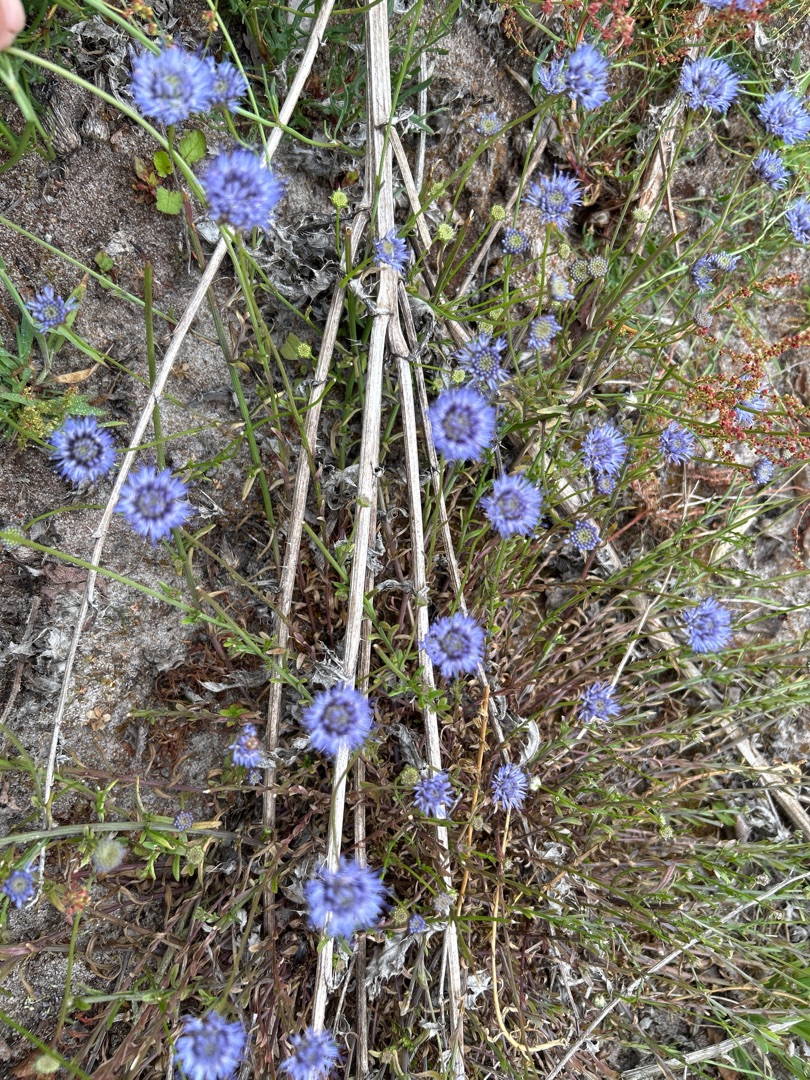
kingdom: Plantae
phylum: Tracheophyta
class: Magnoliopsida
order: Asterales
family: Campanulaceae
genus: Jasione
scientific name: Jasione montana
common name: Blåmunke
